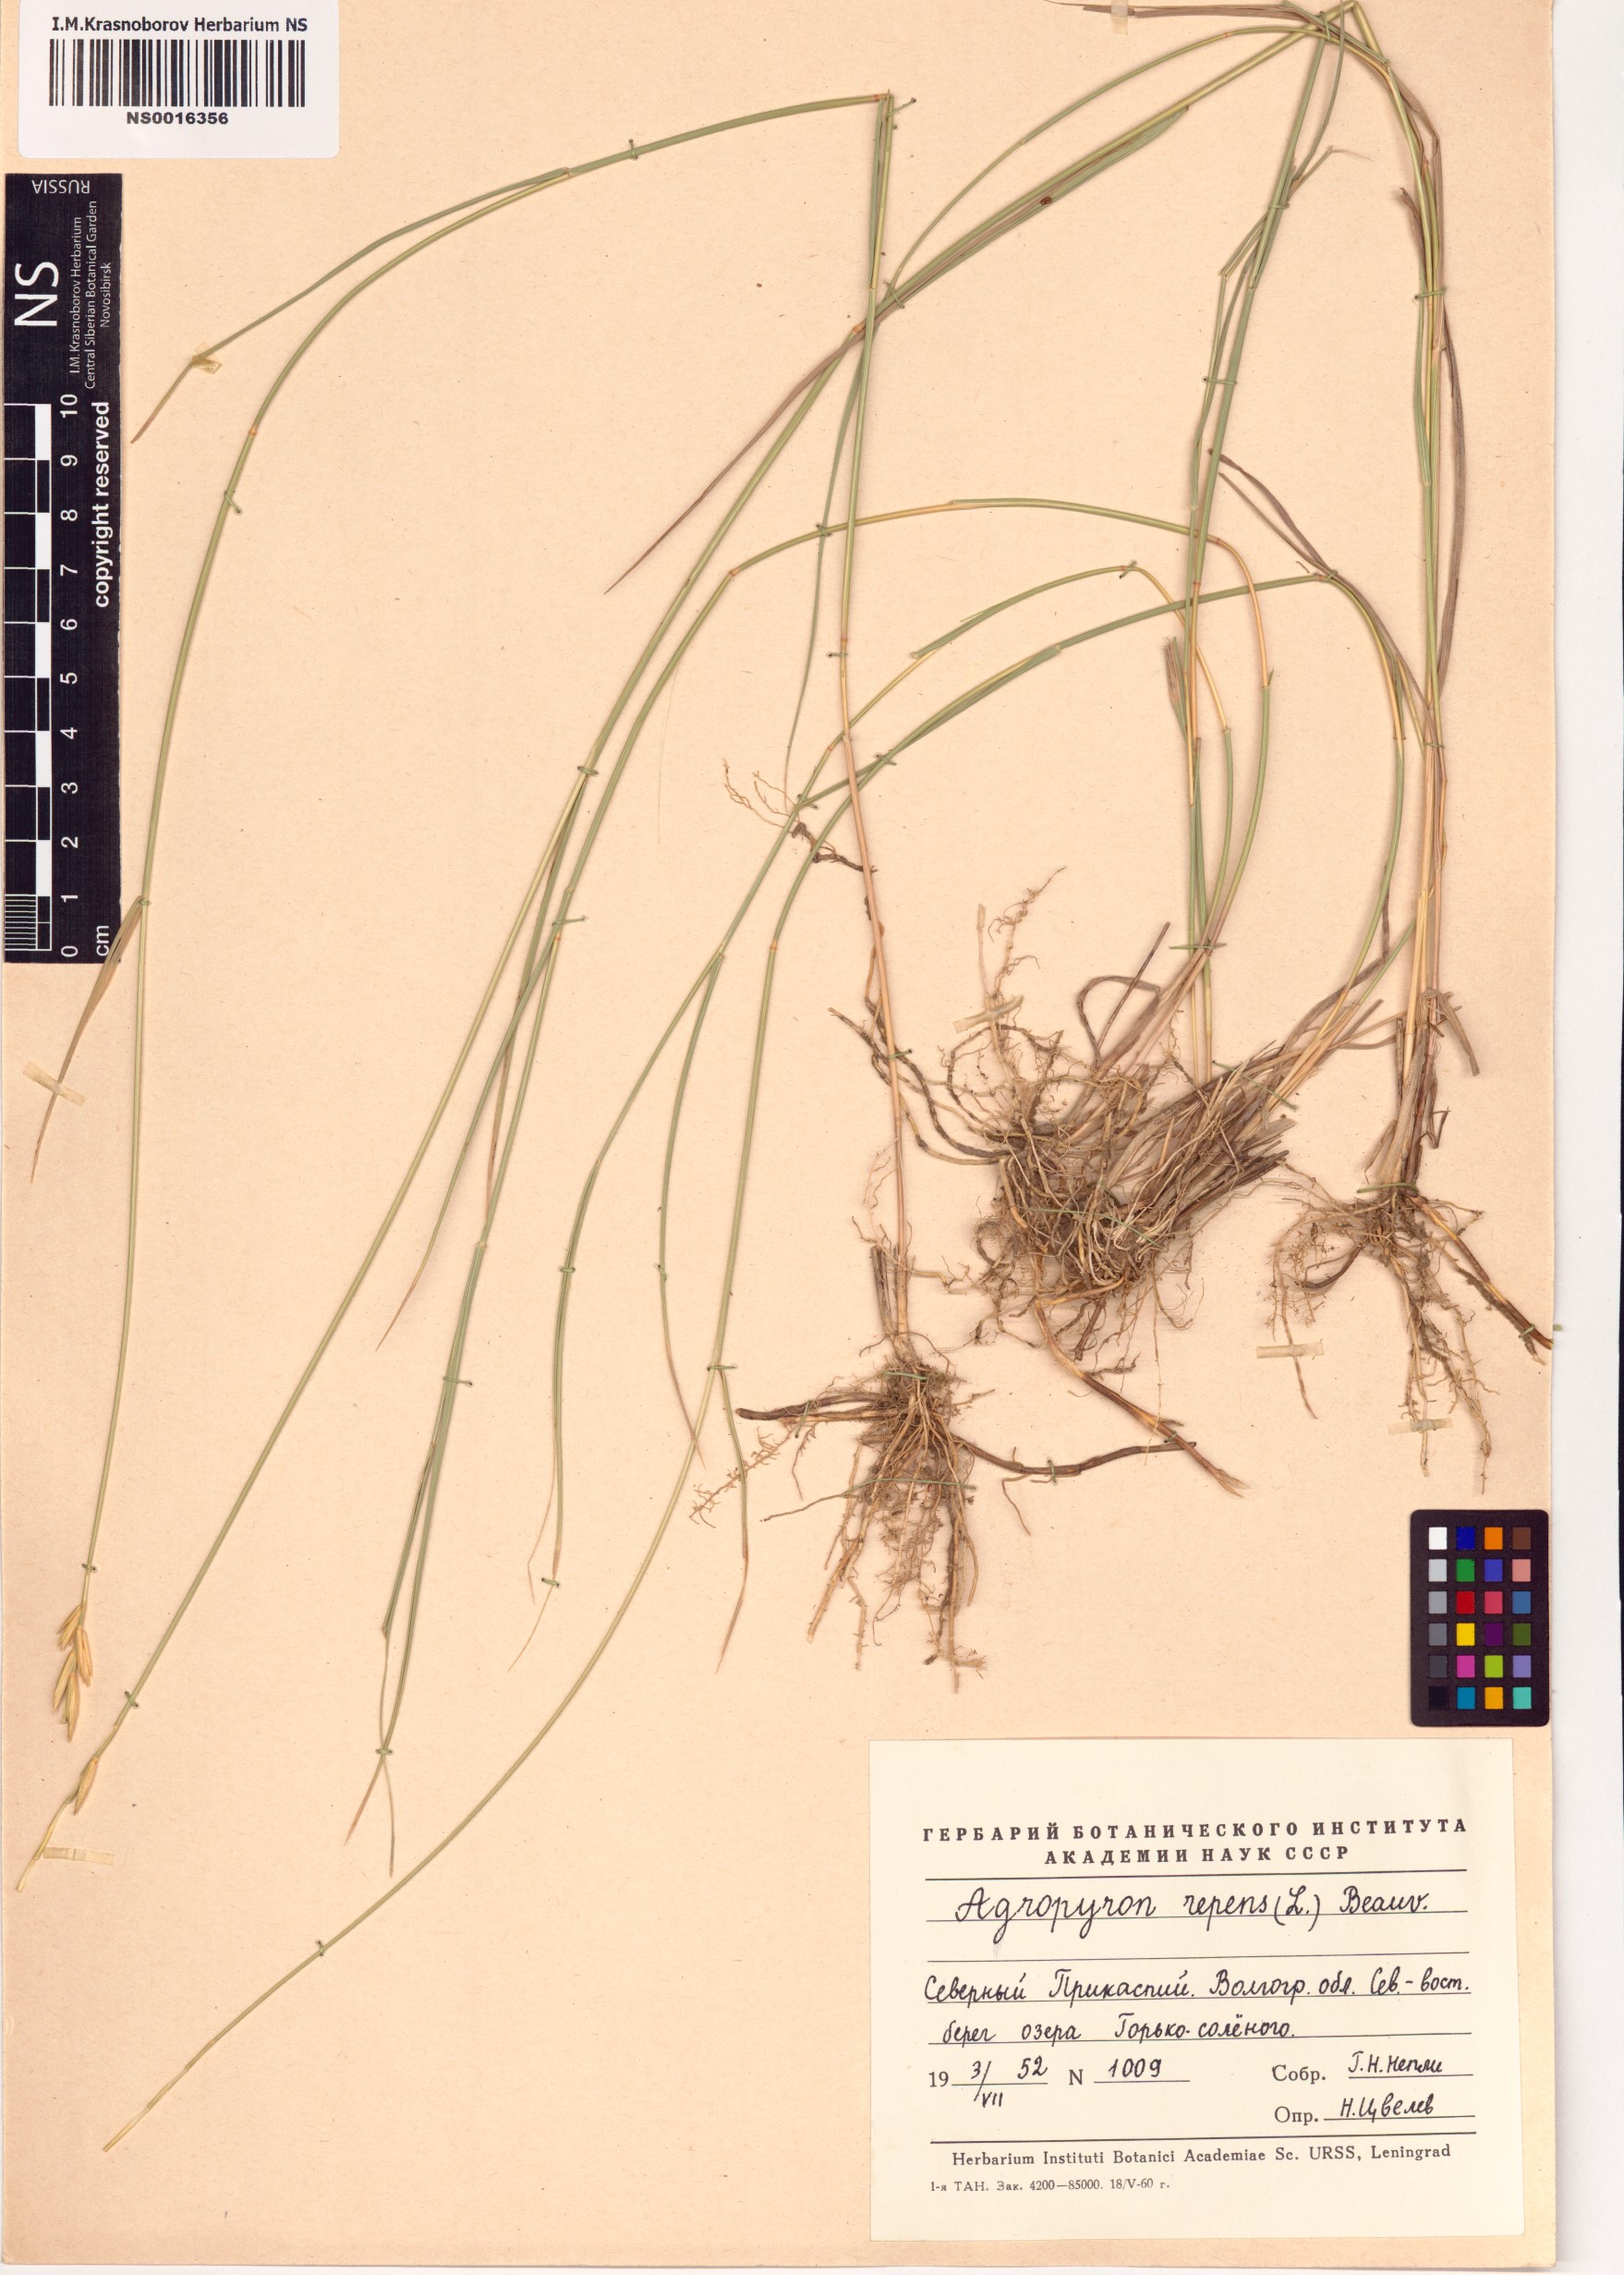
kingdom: Plantae
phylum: Tracheophyta
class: Liliopsida
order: Poales
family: Poaceae
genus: Elymus
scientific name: Elymus repens
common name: Quackgrass
